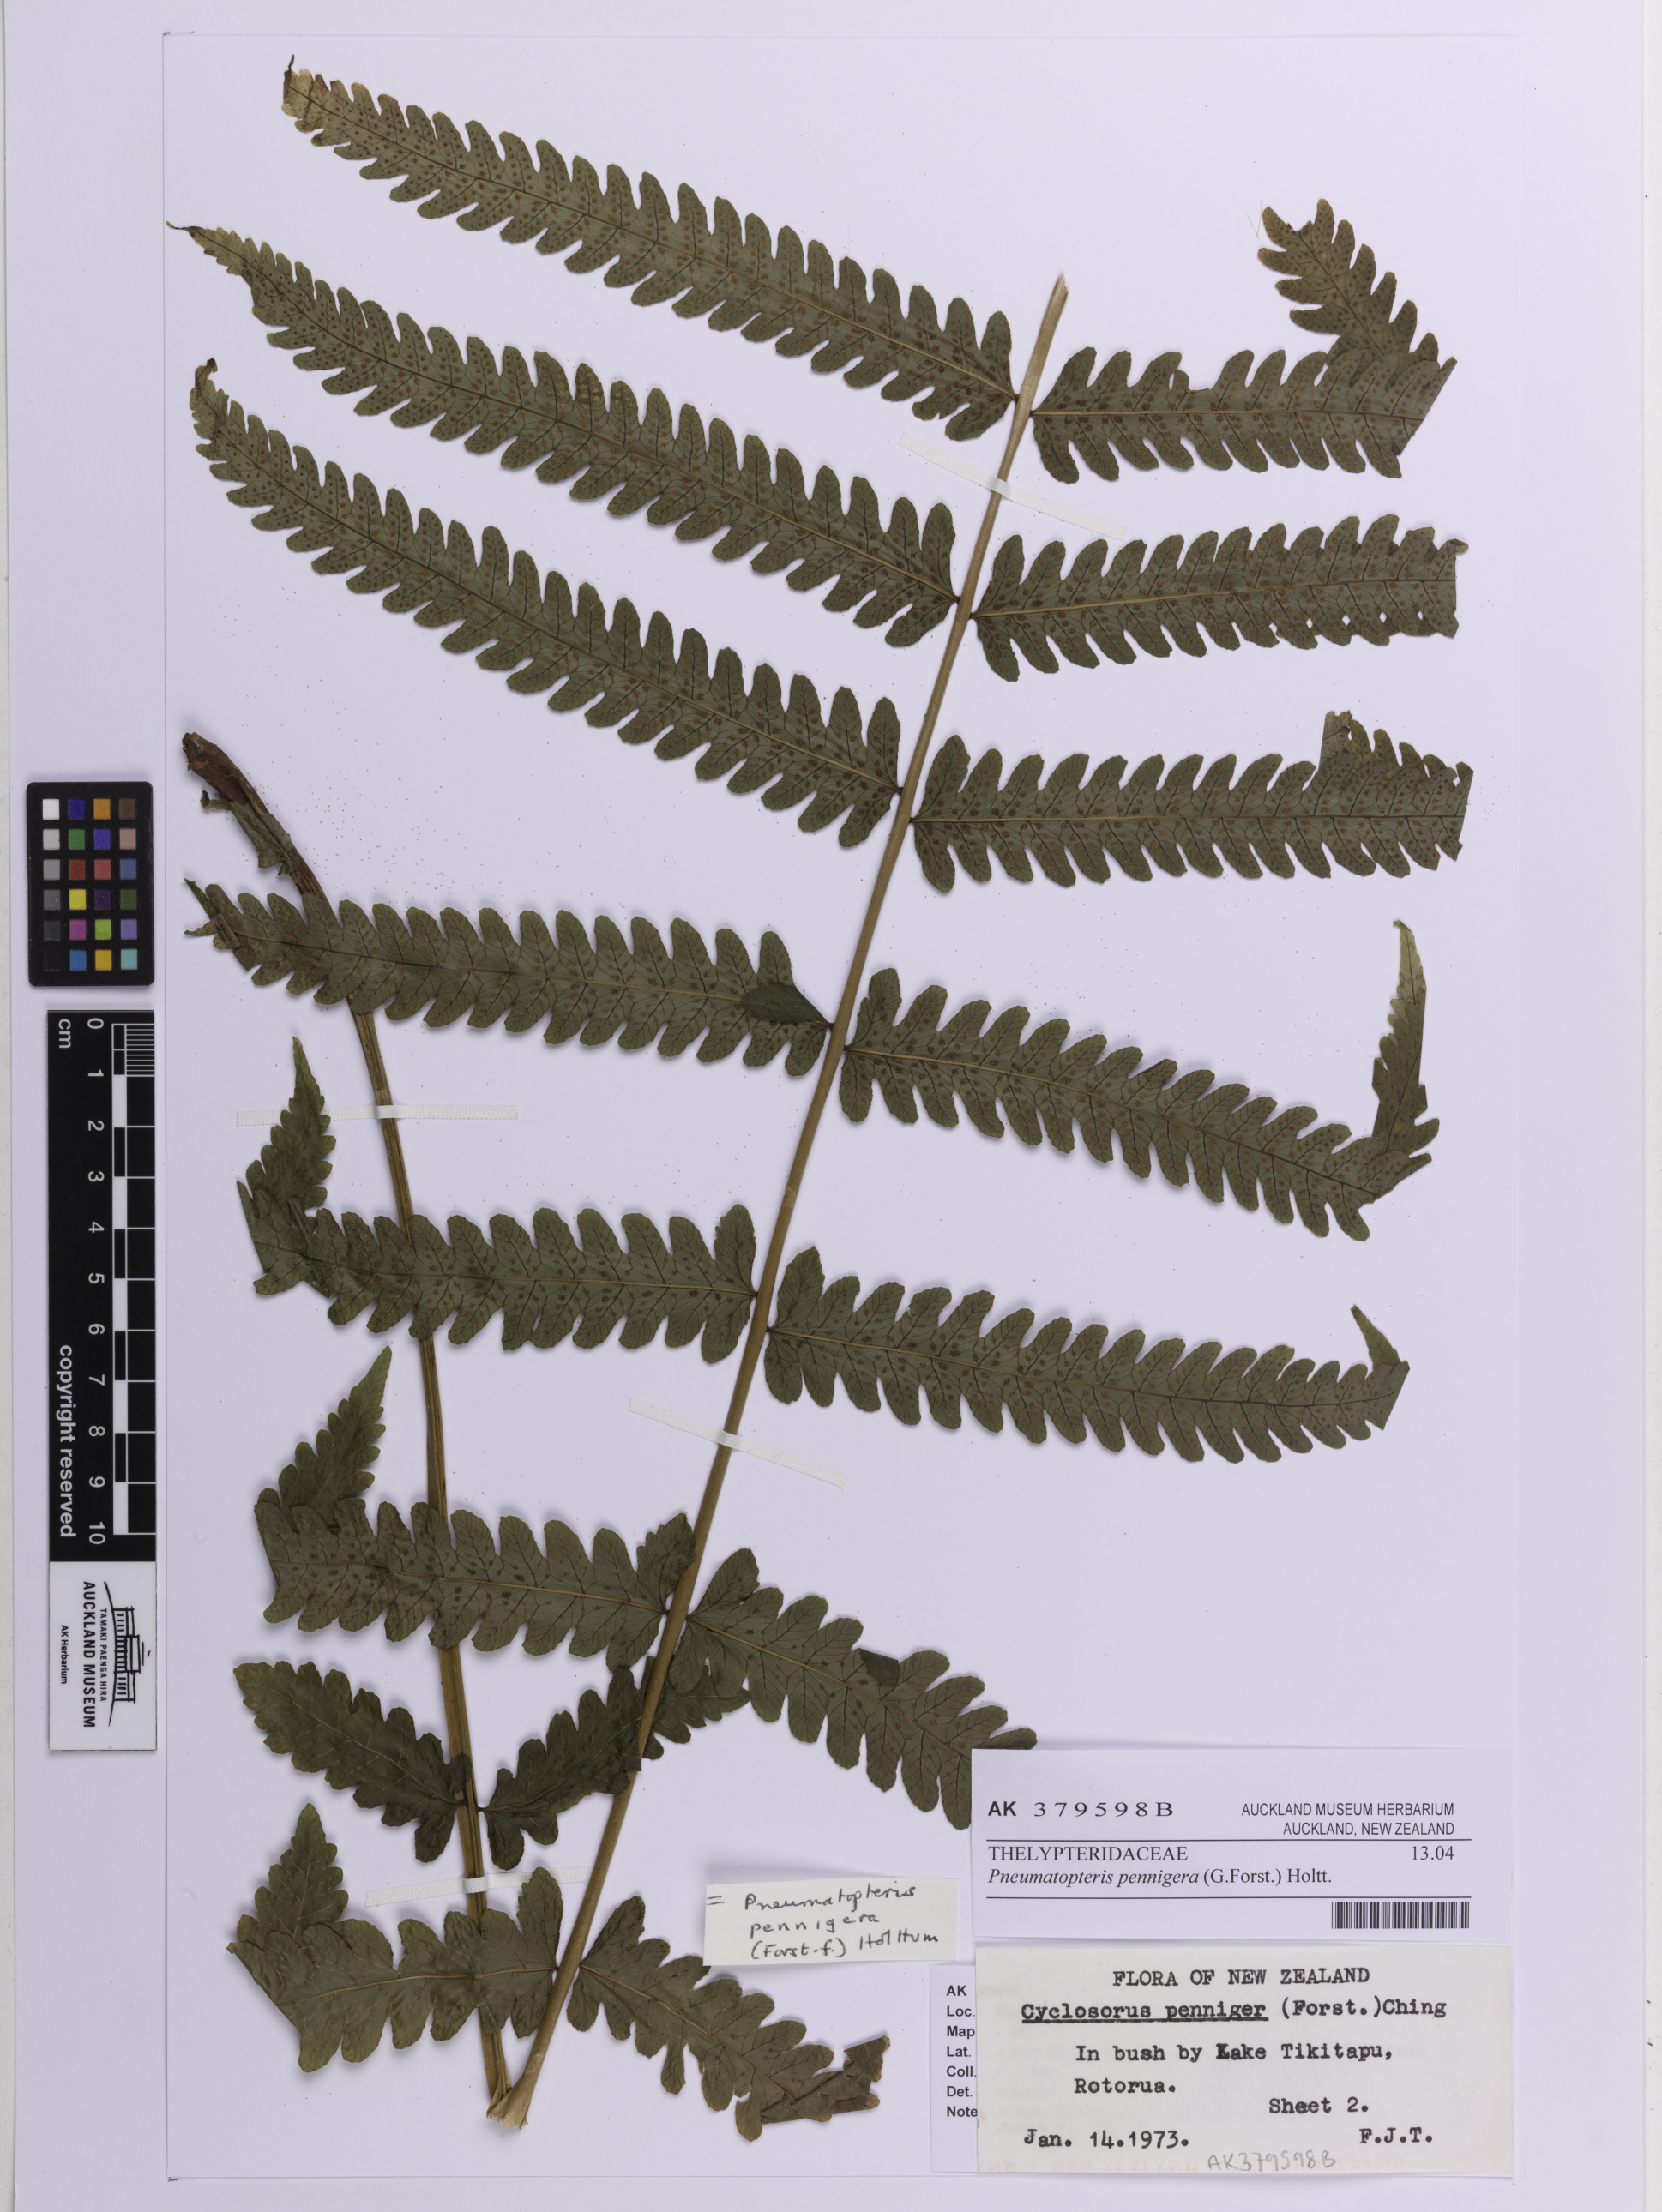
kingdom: Plantae
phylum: Tracheophyta
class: Polypodiopsida
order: Polypodiales
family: Thelypteridaceae
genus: Pakau
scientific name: Pakau pennigera
